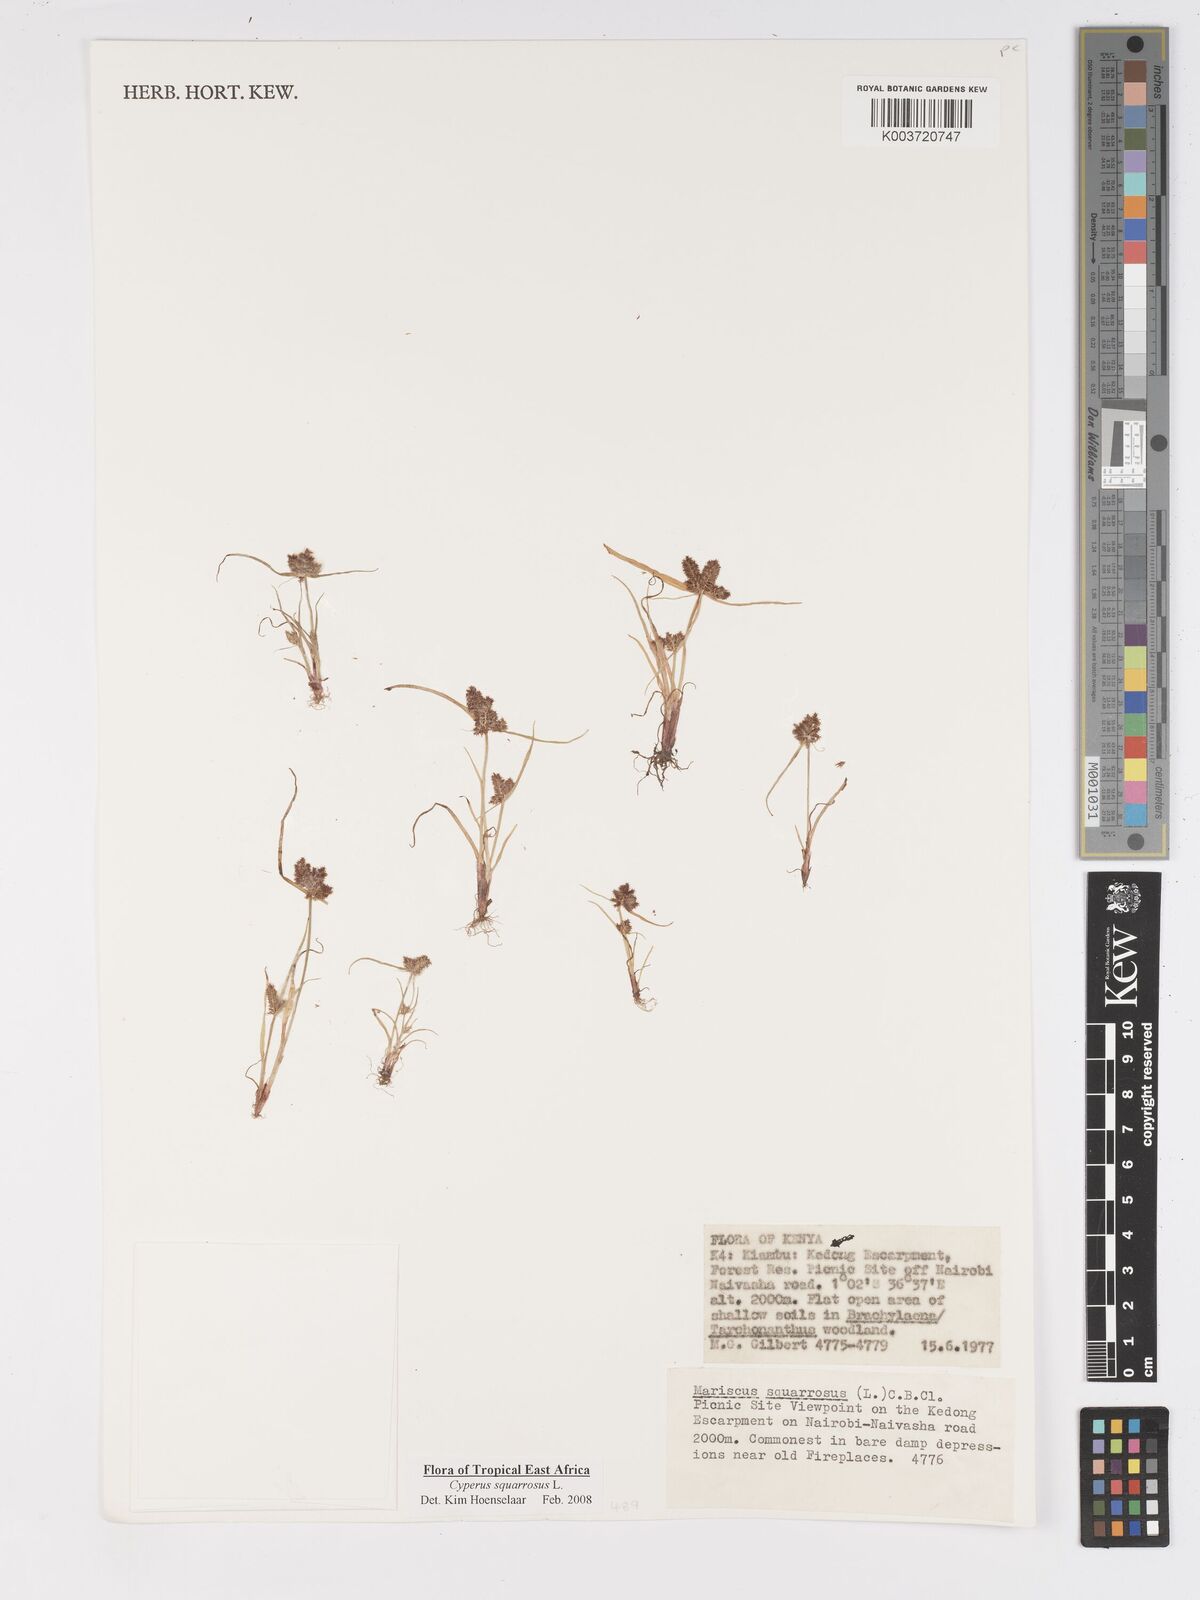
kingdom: Plantae
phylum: Tracheophyta
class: Liliopsida
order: Poales
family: Cyperaceae
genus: Cyperus
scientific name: Cyperus squarrosus
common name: Awned cyperus
